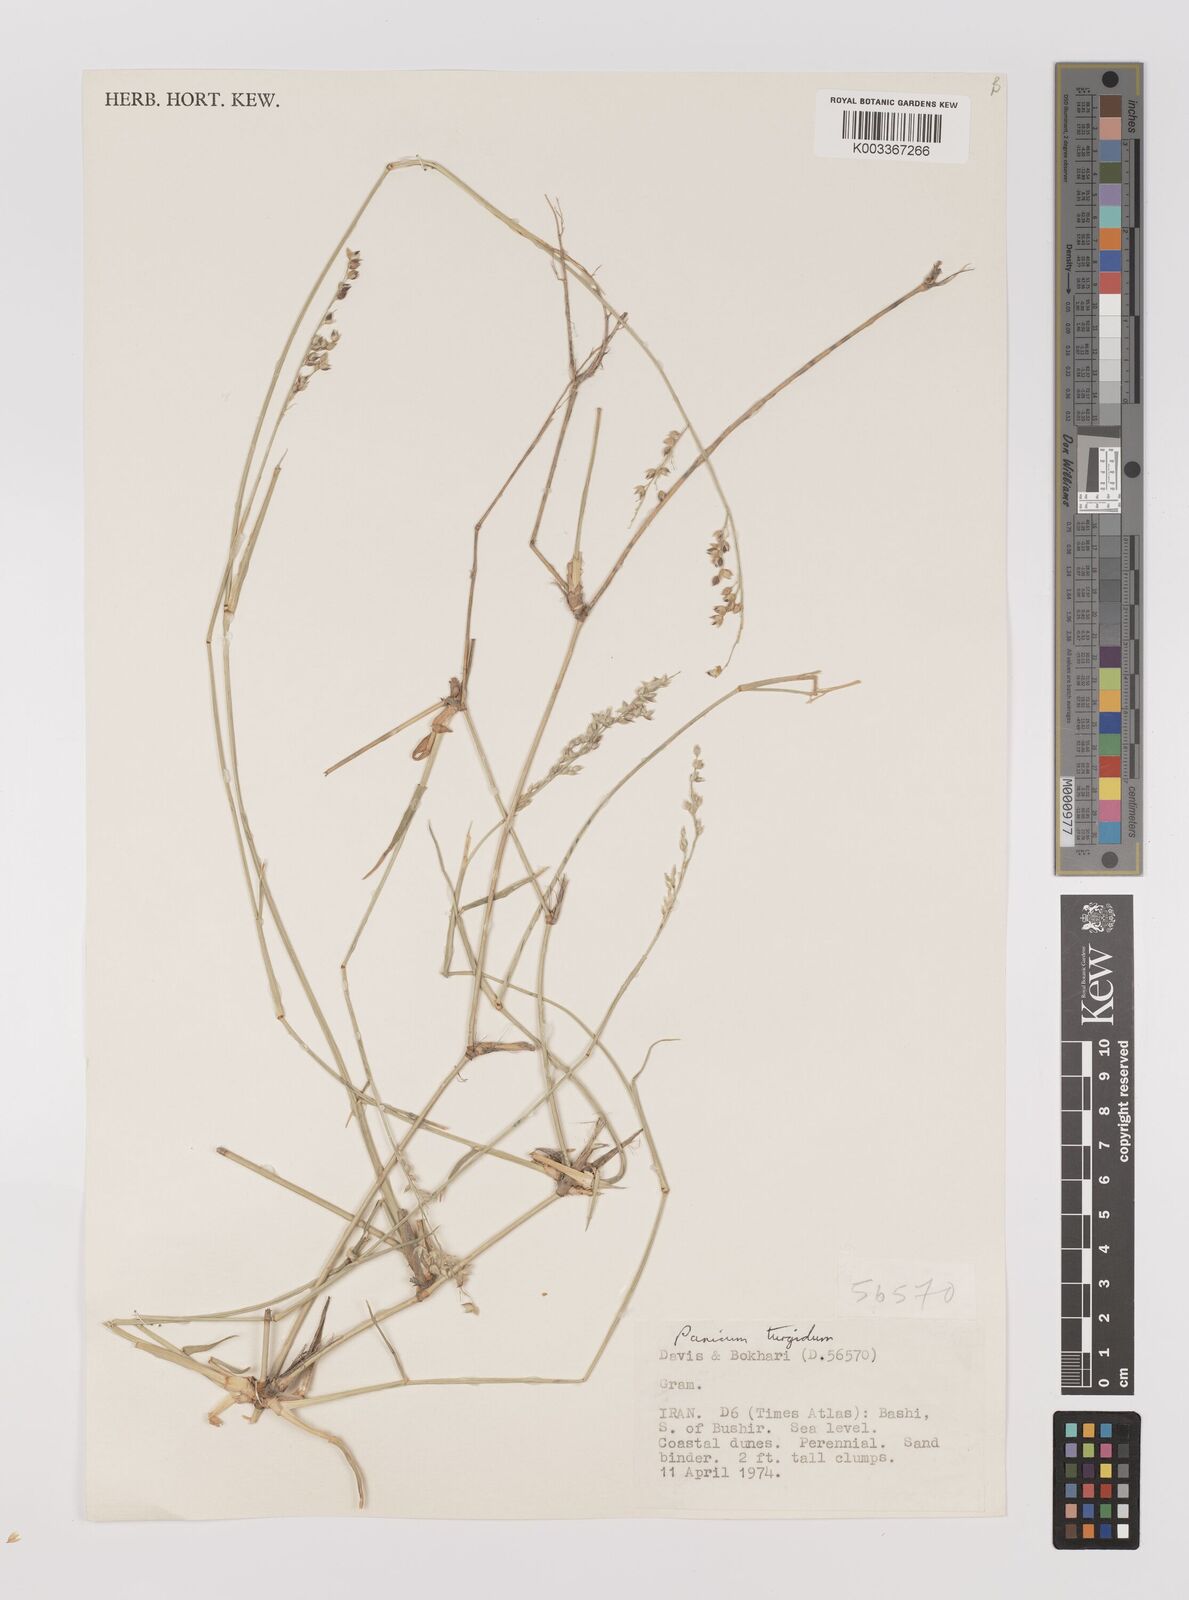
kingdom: Plantae
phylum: Tracheophyta
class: Liliopsida
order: Poales
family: Poaceae
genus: Panicum
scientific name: Panicum turgidum
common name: Desert grass
